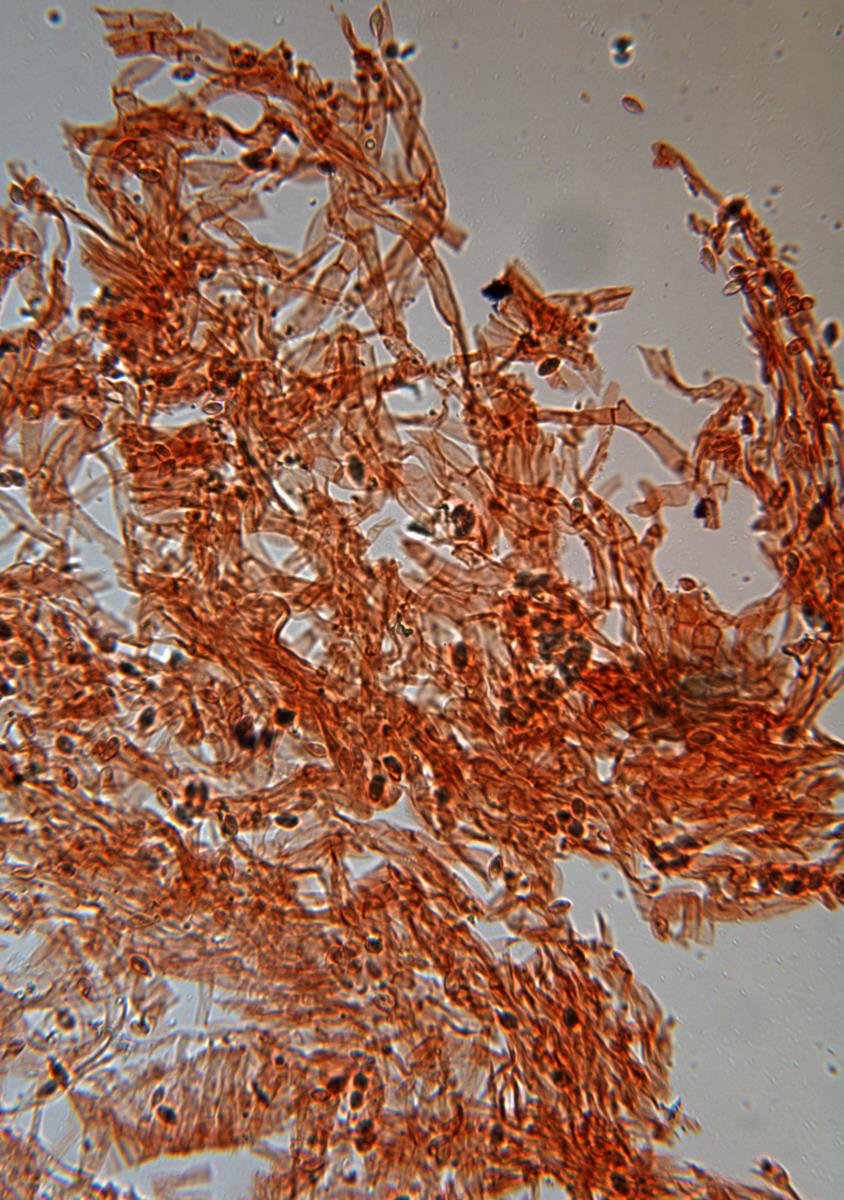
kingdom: Fungi
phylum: Basidiomycota
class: Agaricomycetes
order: Boletales
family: Boletaceae
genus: Rossbeevera
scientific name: Rossbeevera vittatispora
